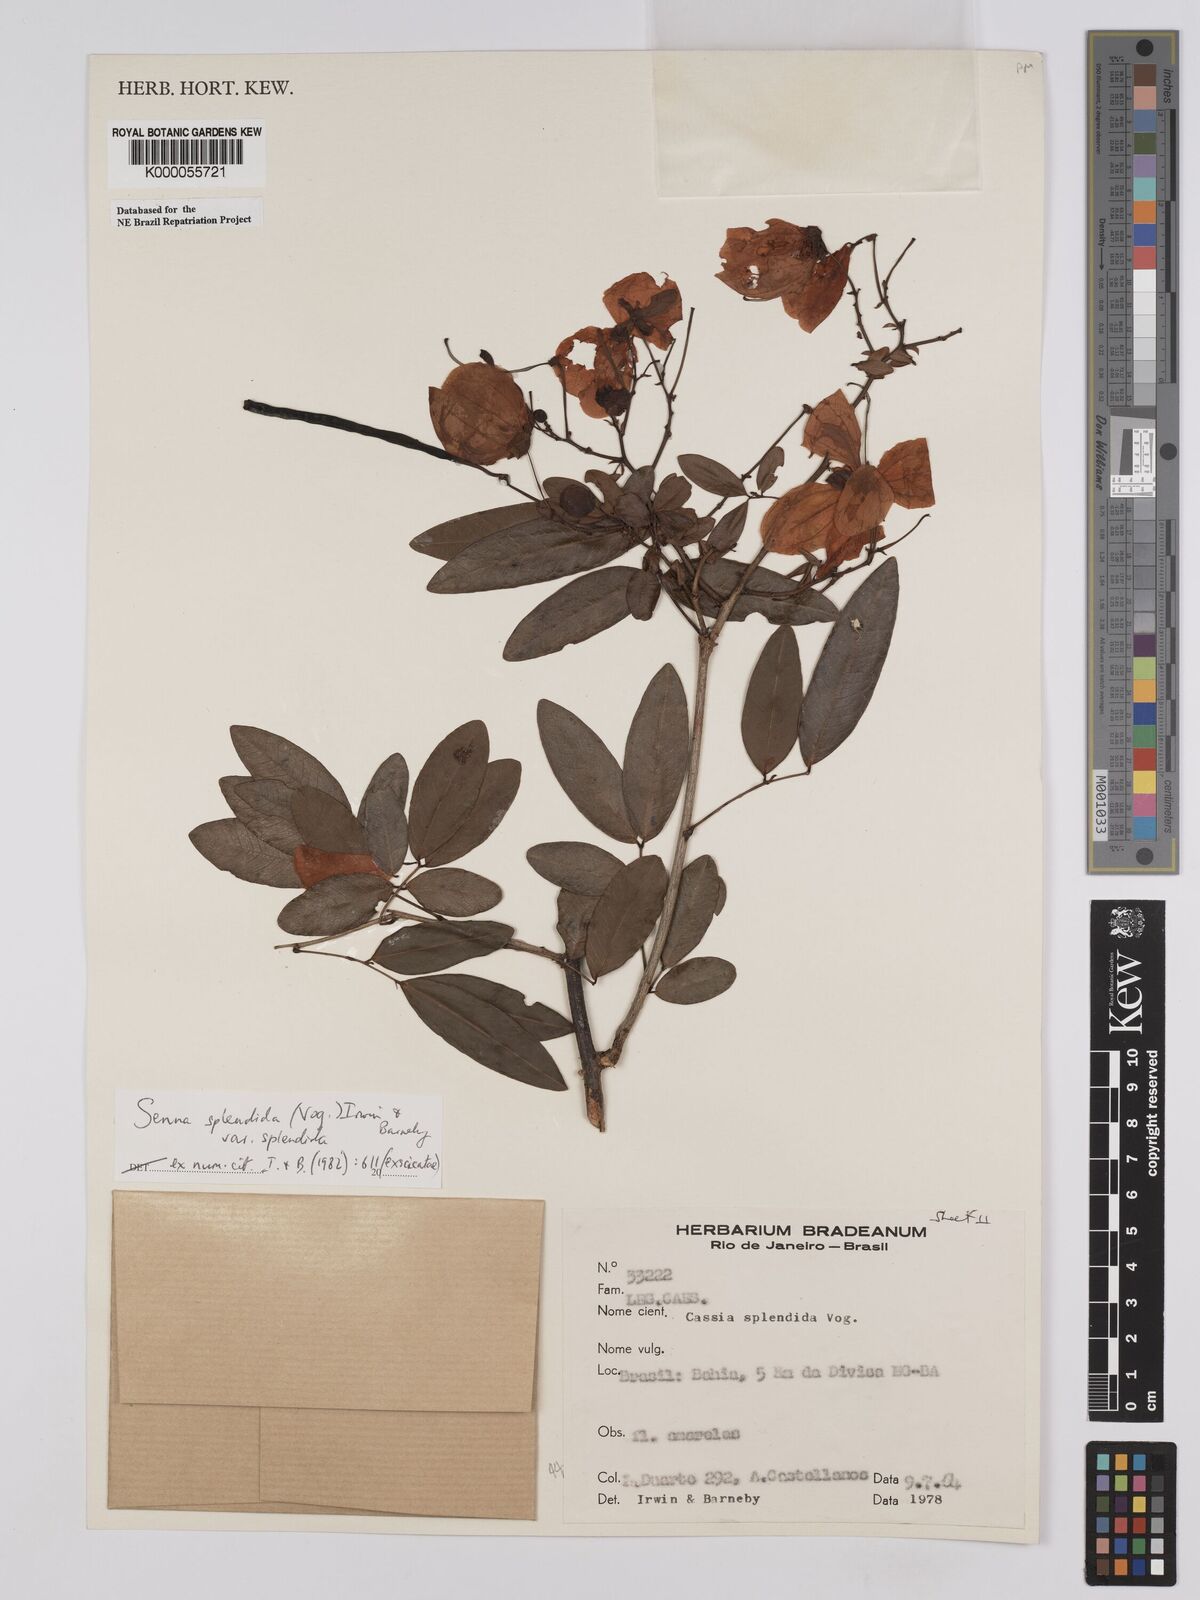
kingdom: Plantae
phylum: Tracheophyta
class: Magnoliopsida
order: Fabales
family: Fabaceae
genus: Senna
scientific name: Senna splendida
